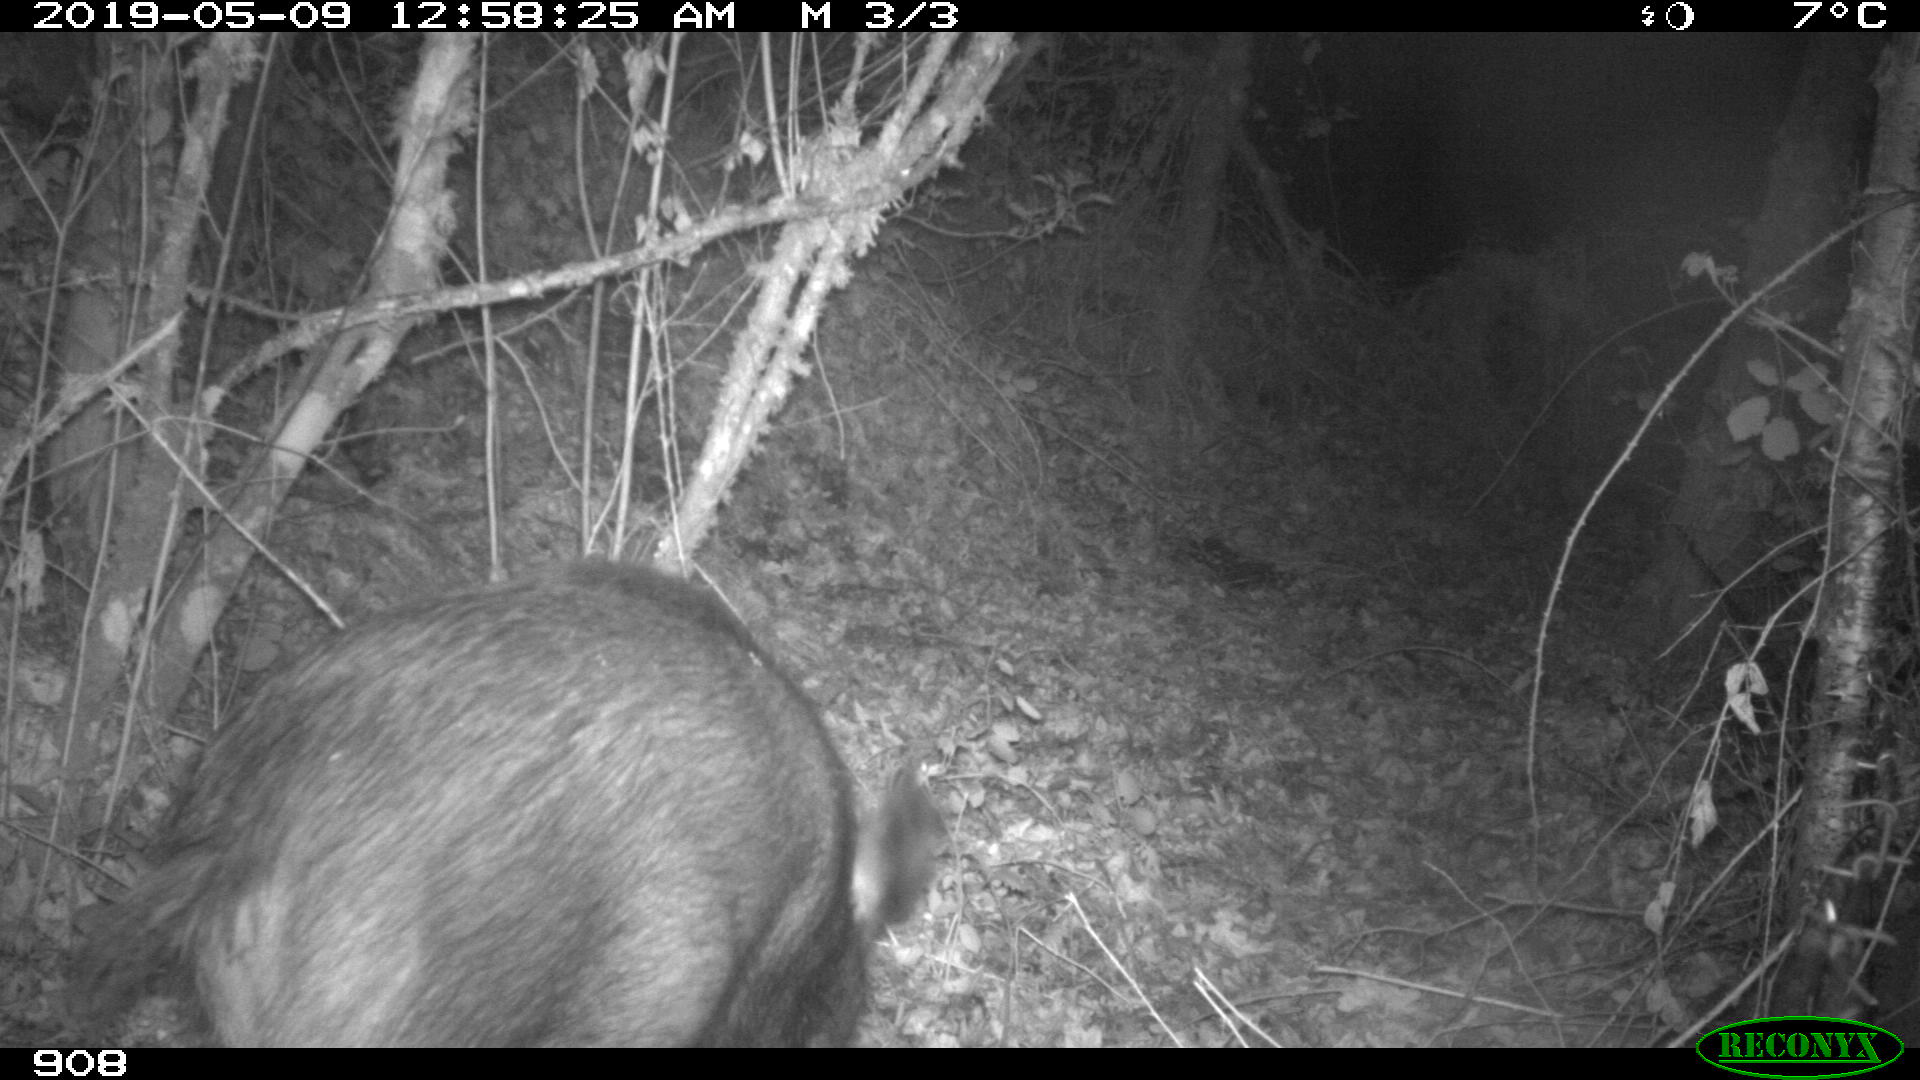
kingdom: Animalia
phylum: Chordata
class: Mammalia
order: Artiodactyla
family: Suidae
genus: Sus
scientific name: Sus scrofa
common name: Wild boar
